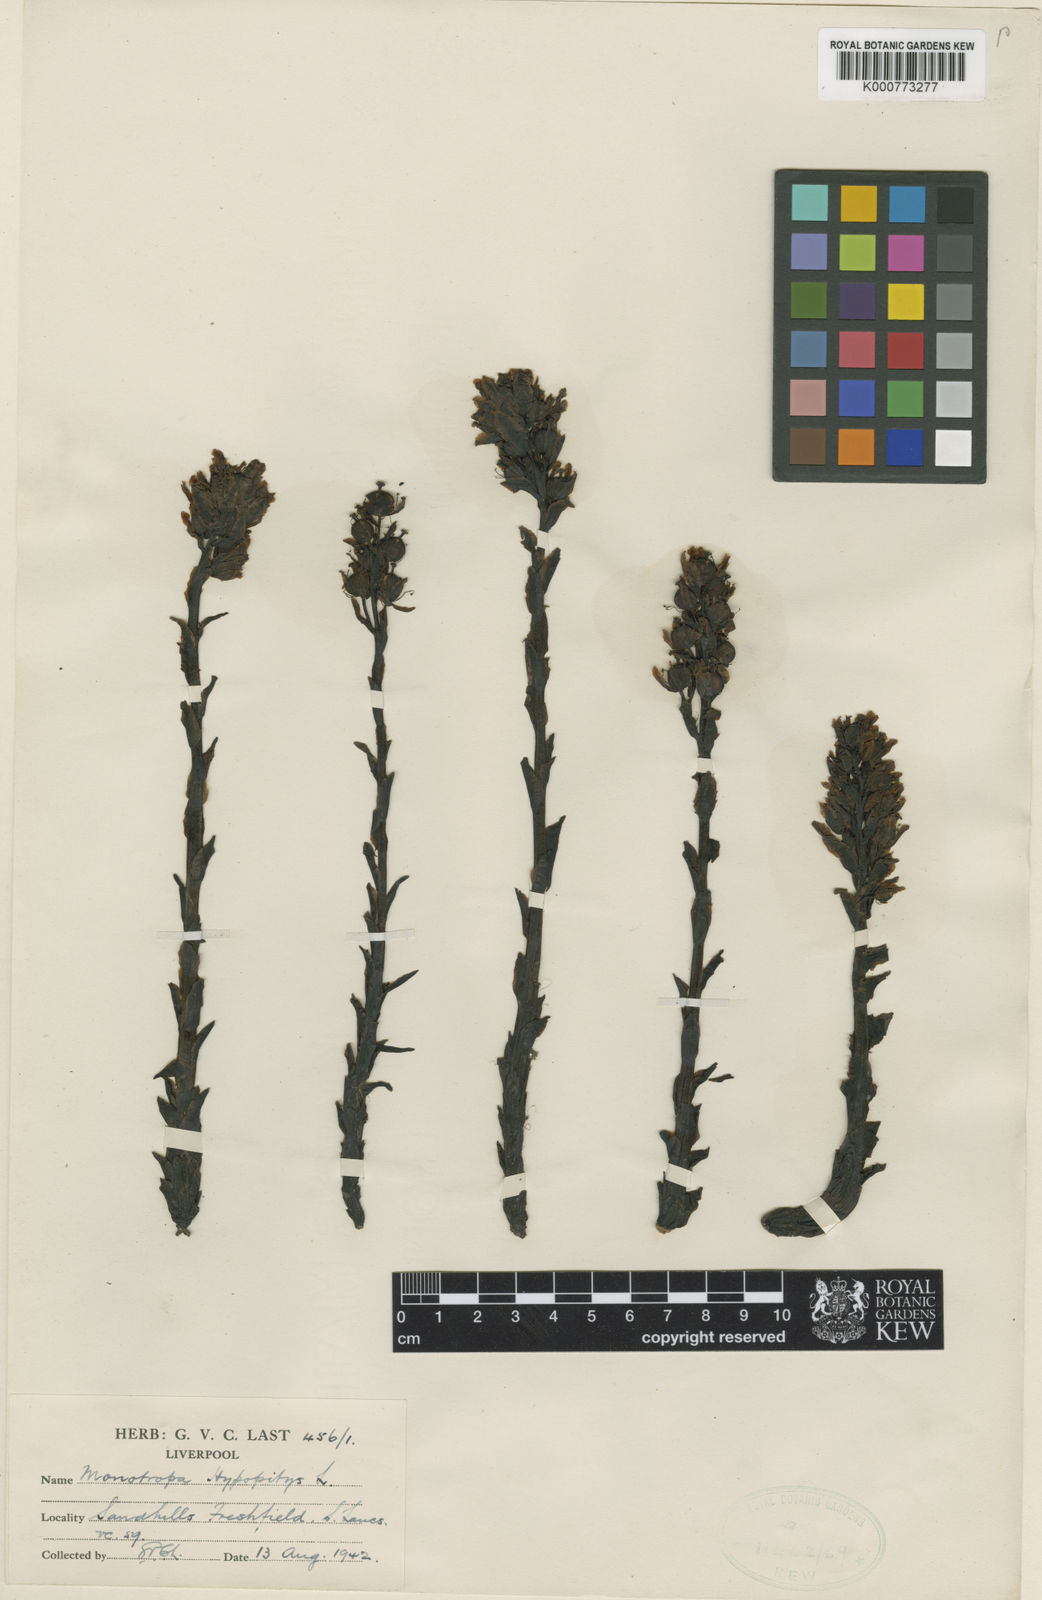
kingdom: Plantae
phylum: Tracheophyta
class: Magnoliopsida
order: Ericales
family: Ericaceae
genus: Monotropa
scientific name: Monotropa
